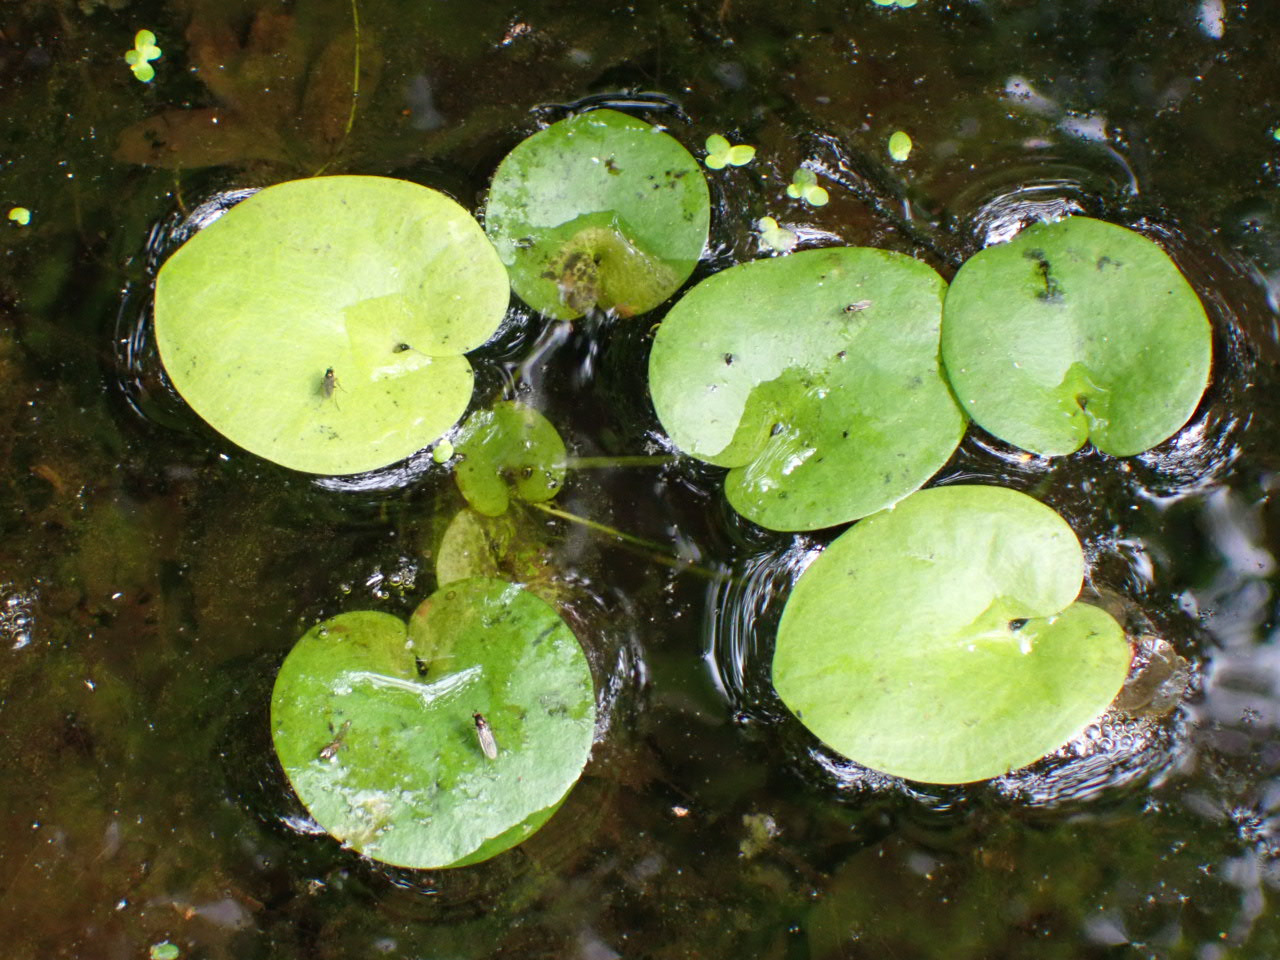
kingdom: Plantae
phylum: Tracheophyta
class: Liliopsida
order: Alismatales
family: Hydrocharitaceae
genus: Hydrocharis
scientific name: Hydrocharis morsus-ranae
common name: Frøbid
